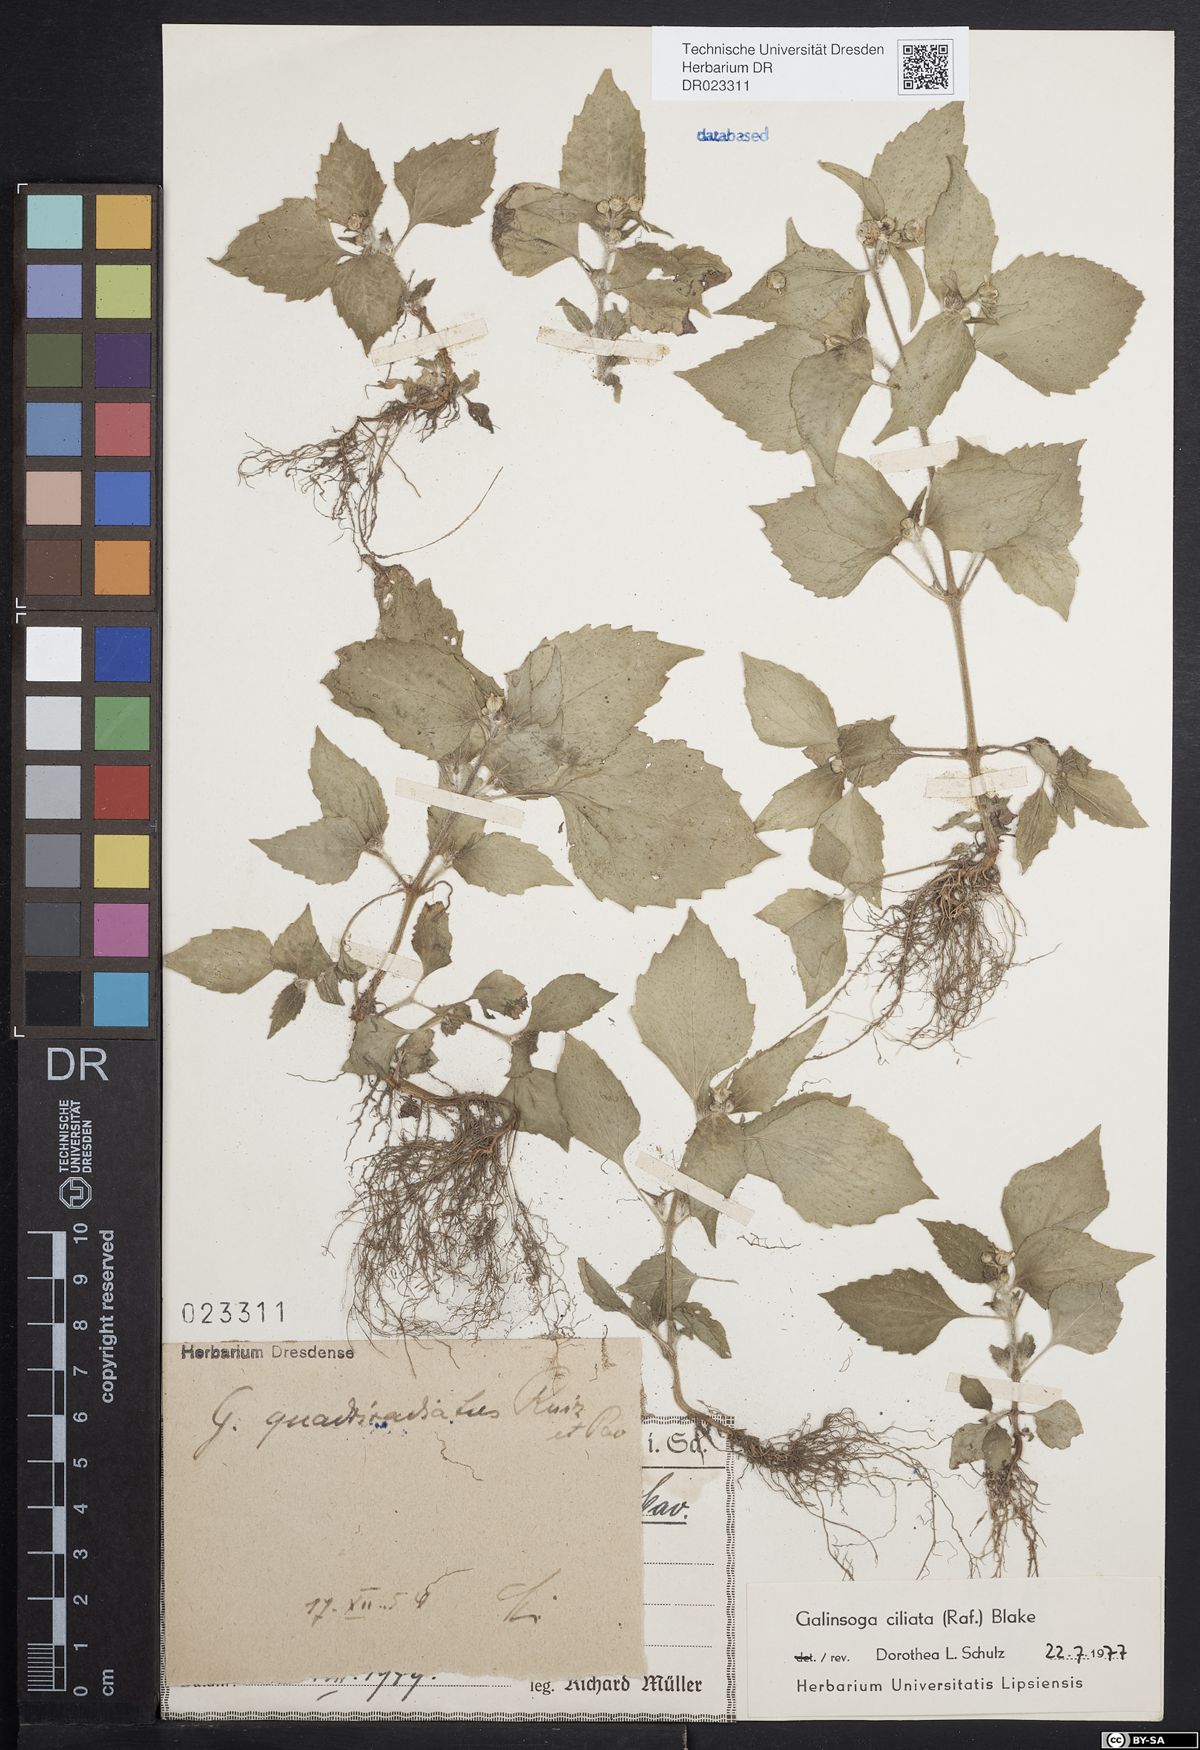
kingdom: Plantae
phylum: Tracheophyta
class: Magnoliopsida
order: Asterales
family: Asteraceae
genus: Galinsoga
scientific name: Galinsoga quadriradiata
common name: Shaggy soldier
